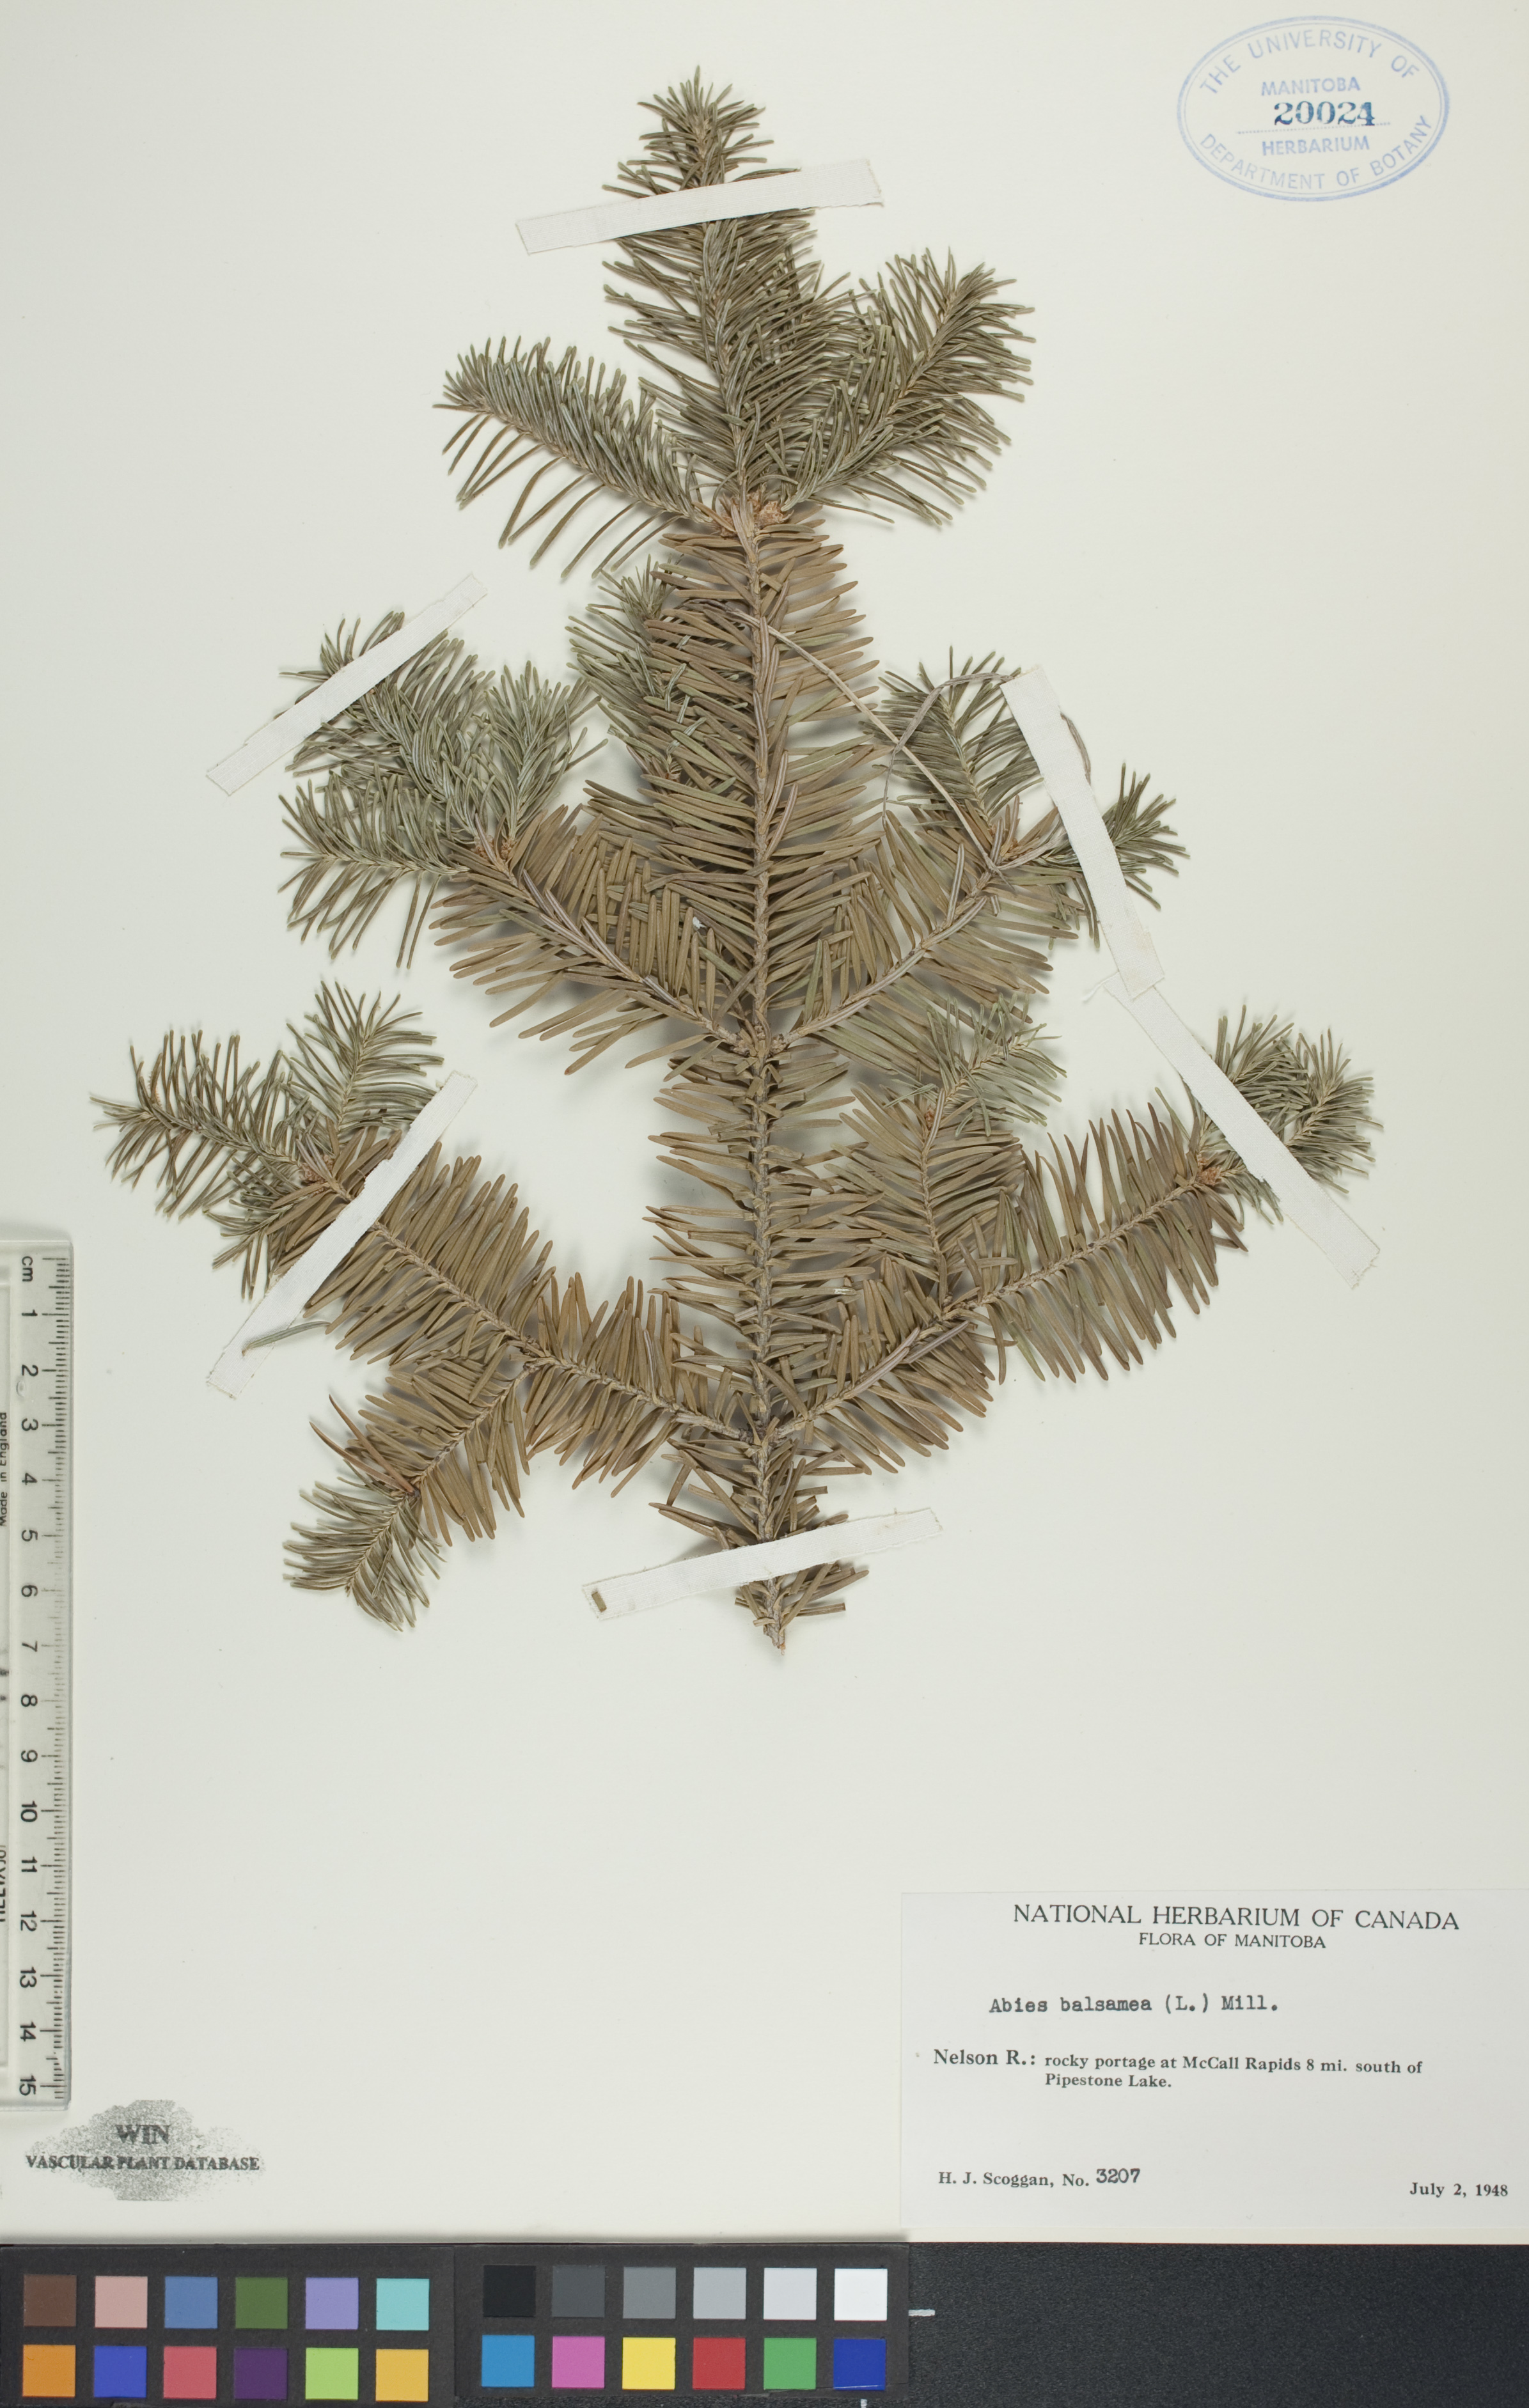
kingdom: Plantae
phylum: Tracheophyta
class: Pinopsida
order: Pinales
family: Pinaceae
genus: Abies
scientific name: Abies balsamea
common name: Balsam fir
